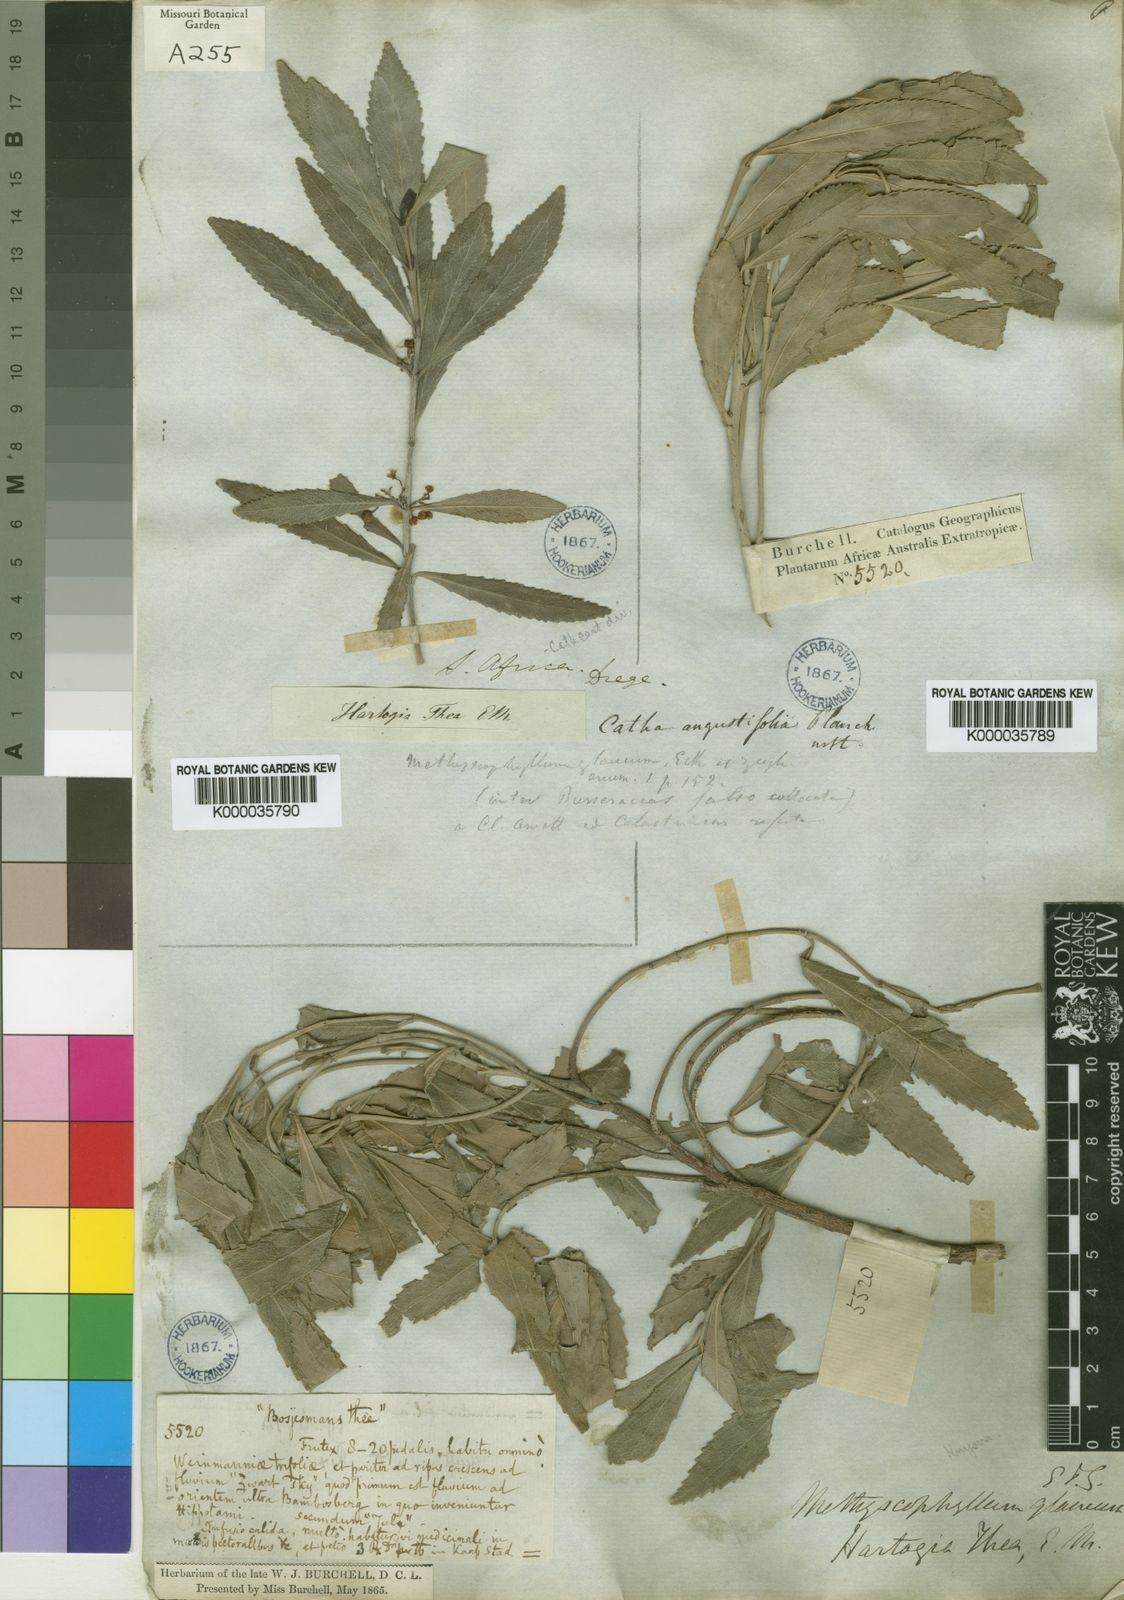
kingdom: Plantae
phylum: Tracheophyta
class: Magnoliopsida
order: Celastrales
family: Celastraceae
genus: Catha
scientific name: Catha edulis
